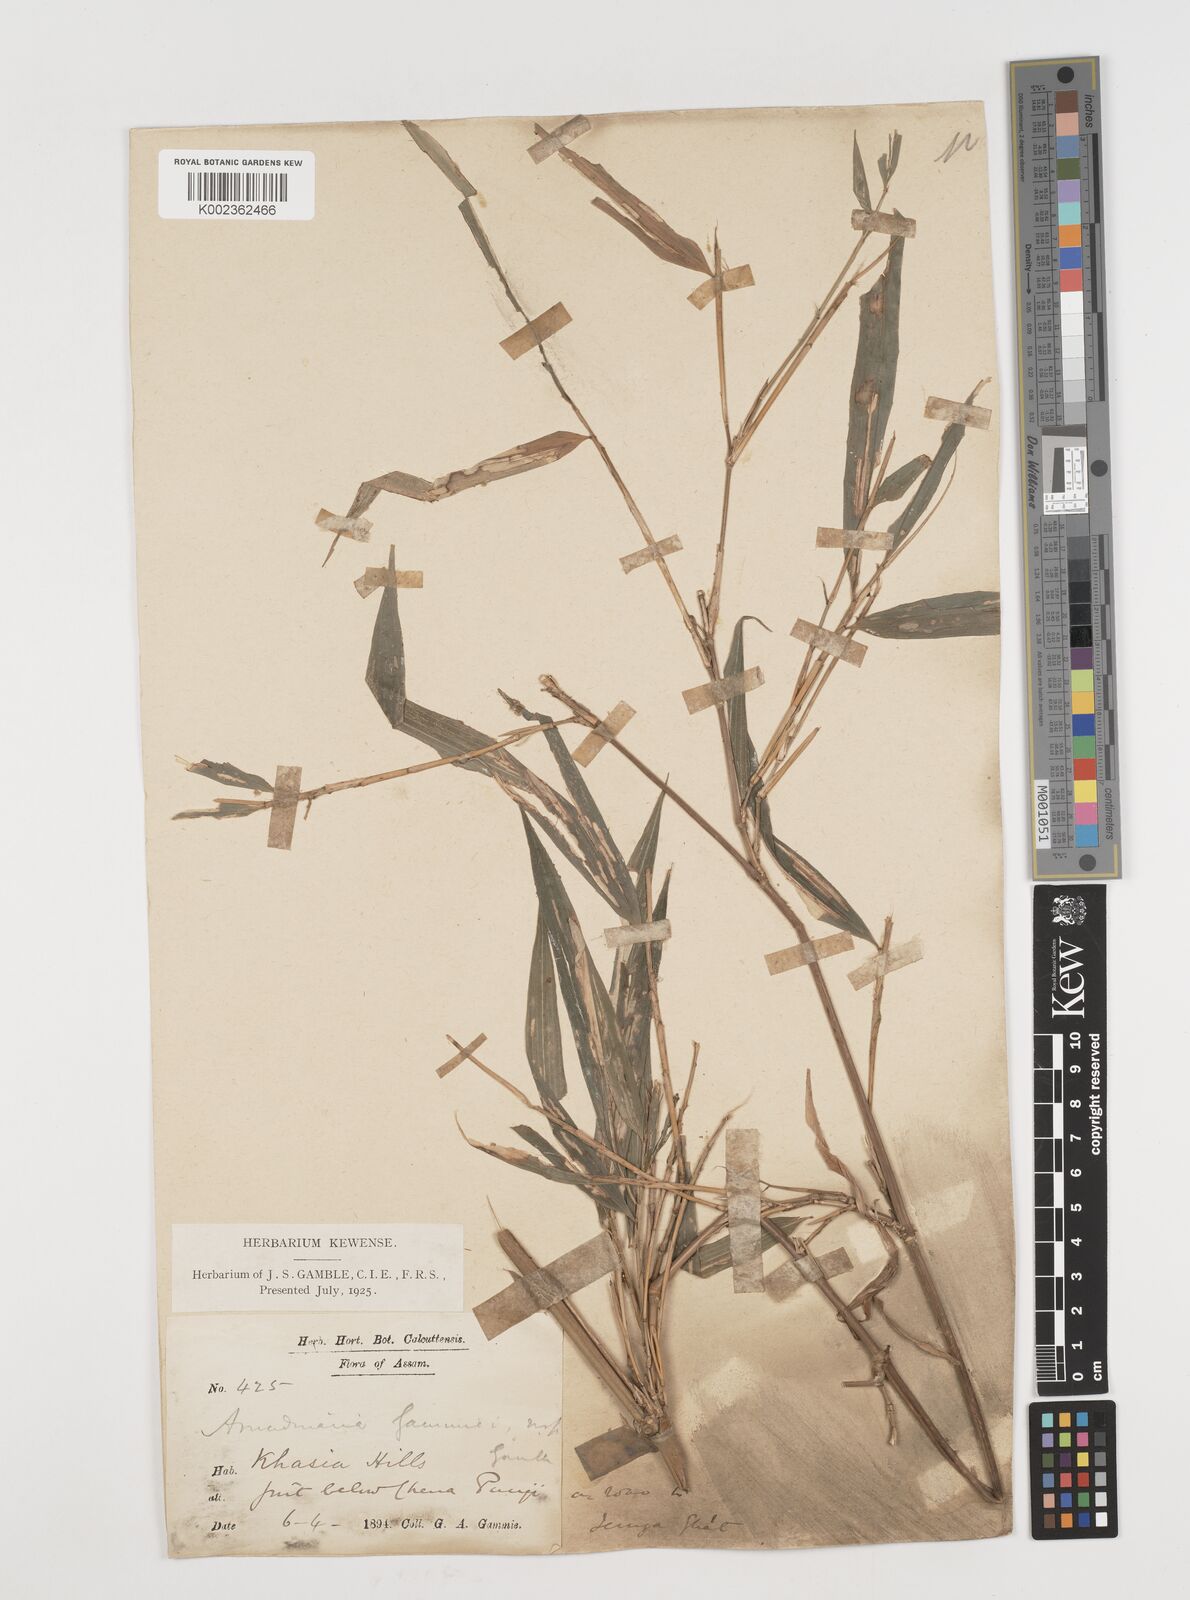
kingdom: Plantae
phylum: Tracheophyta
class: Liliopsida
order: Poales
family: Poaceae
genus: Chimonocalamus
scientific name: Chimonocalamus griffithianus
